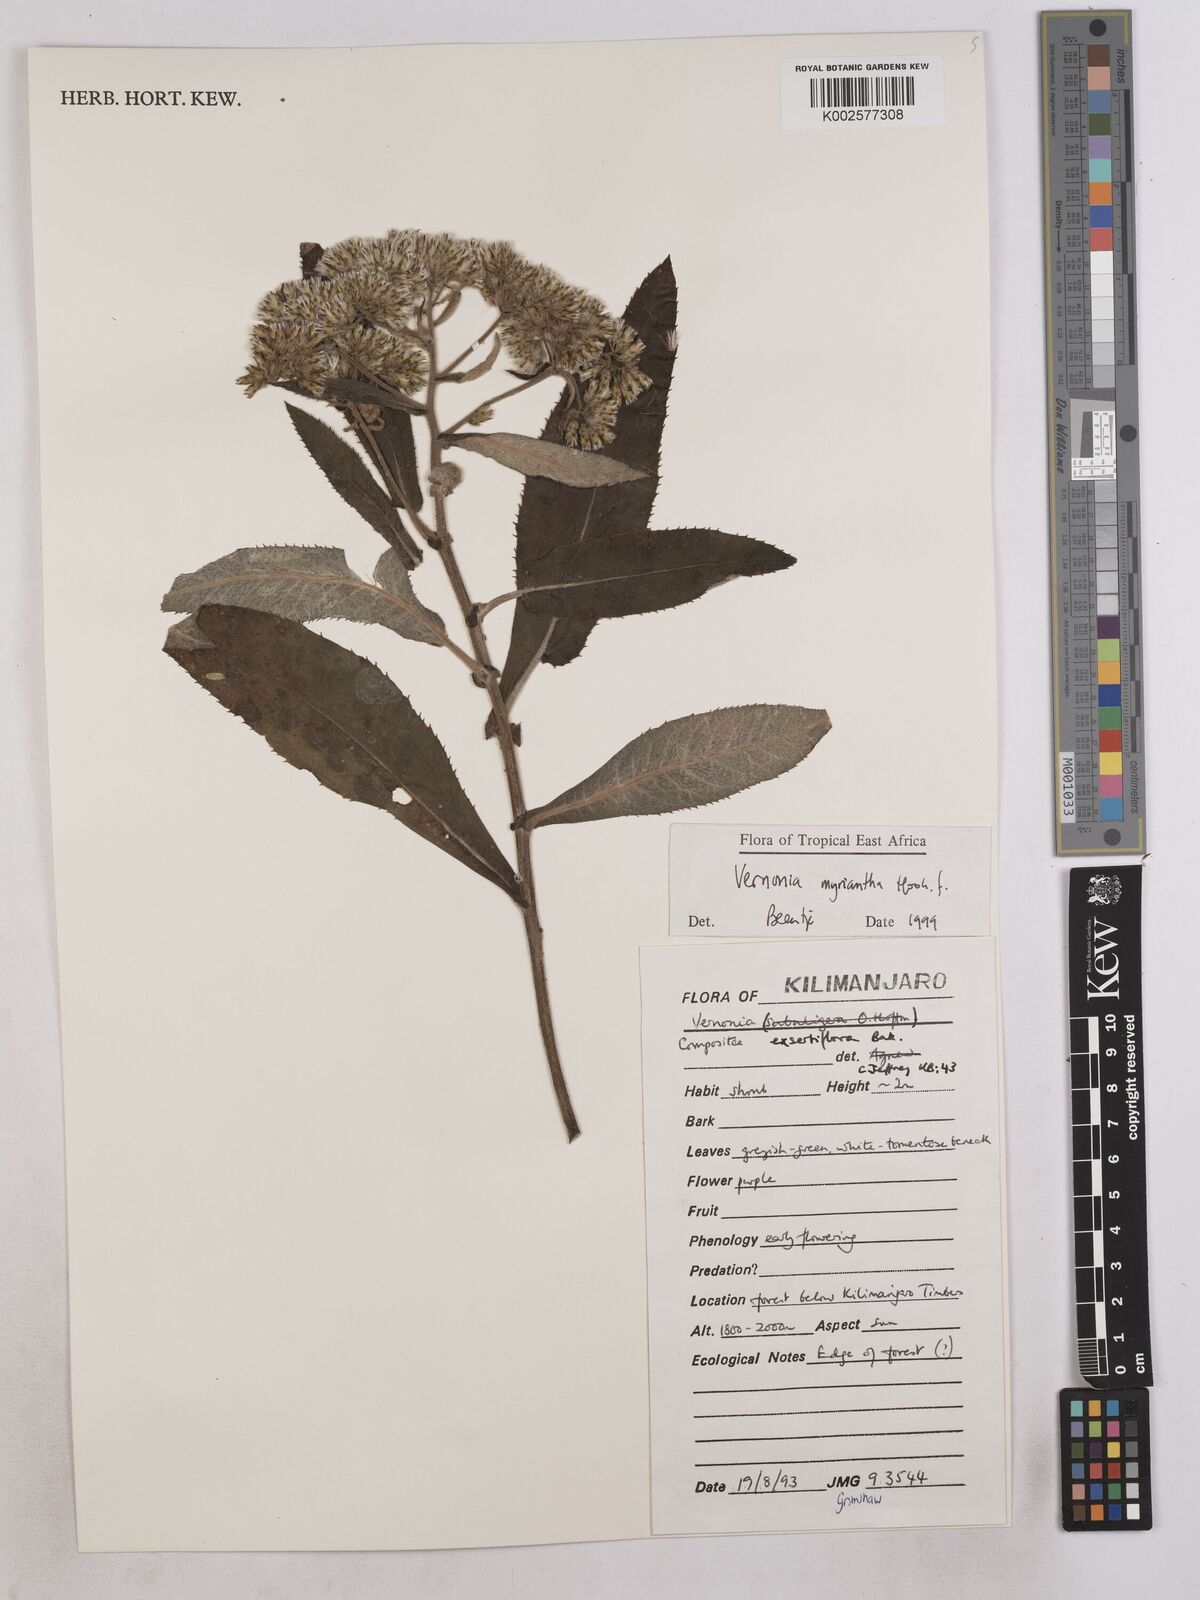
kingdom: Plantae
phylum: Tracheophyta
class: Magnoliopsida
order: Asterales
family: Asteraceae
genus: Gymnanthemum
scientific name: Gymnanthemum myrianthum
